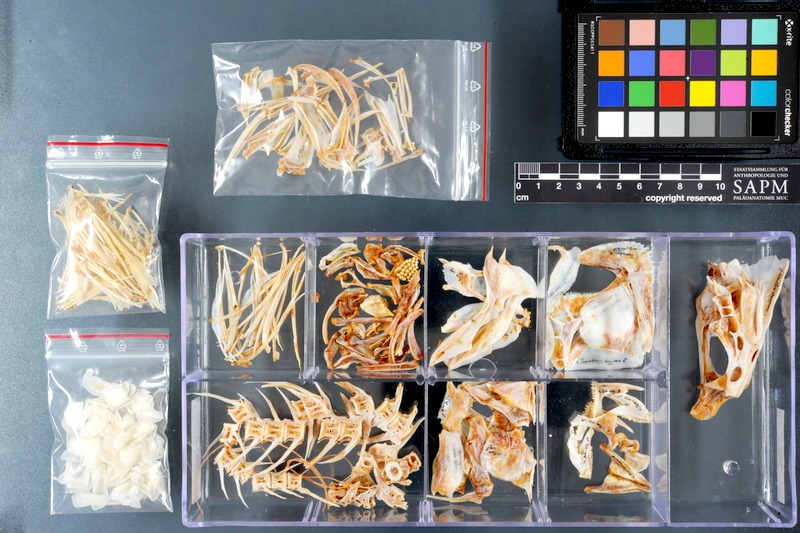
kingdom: Animalia
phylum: Chordata
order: Perciformes
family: Haemulidae
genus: Pomadasys
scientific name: Pomadasys argyreus
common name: Bluecheek silver grunt
